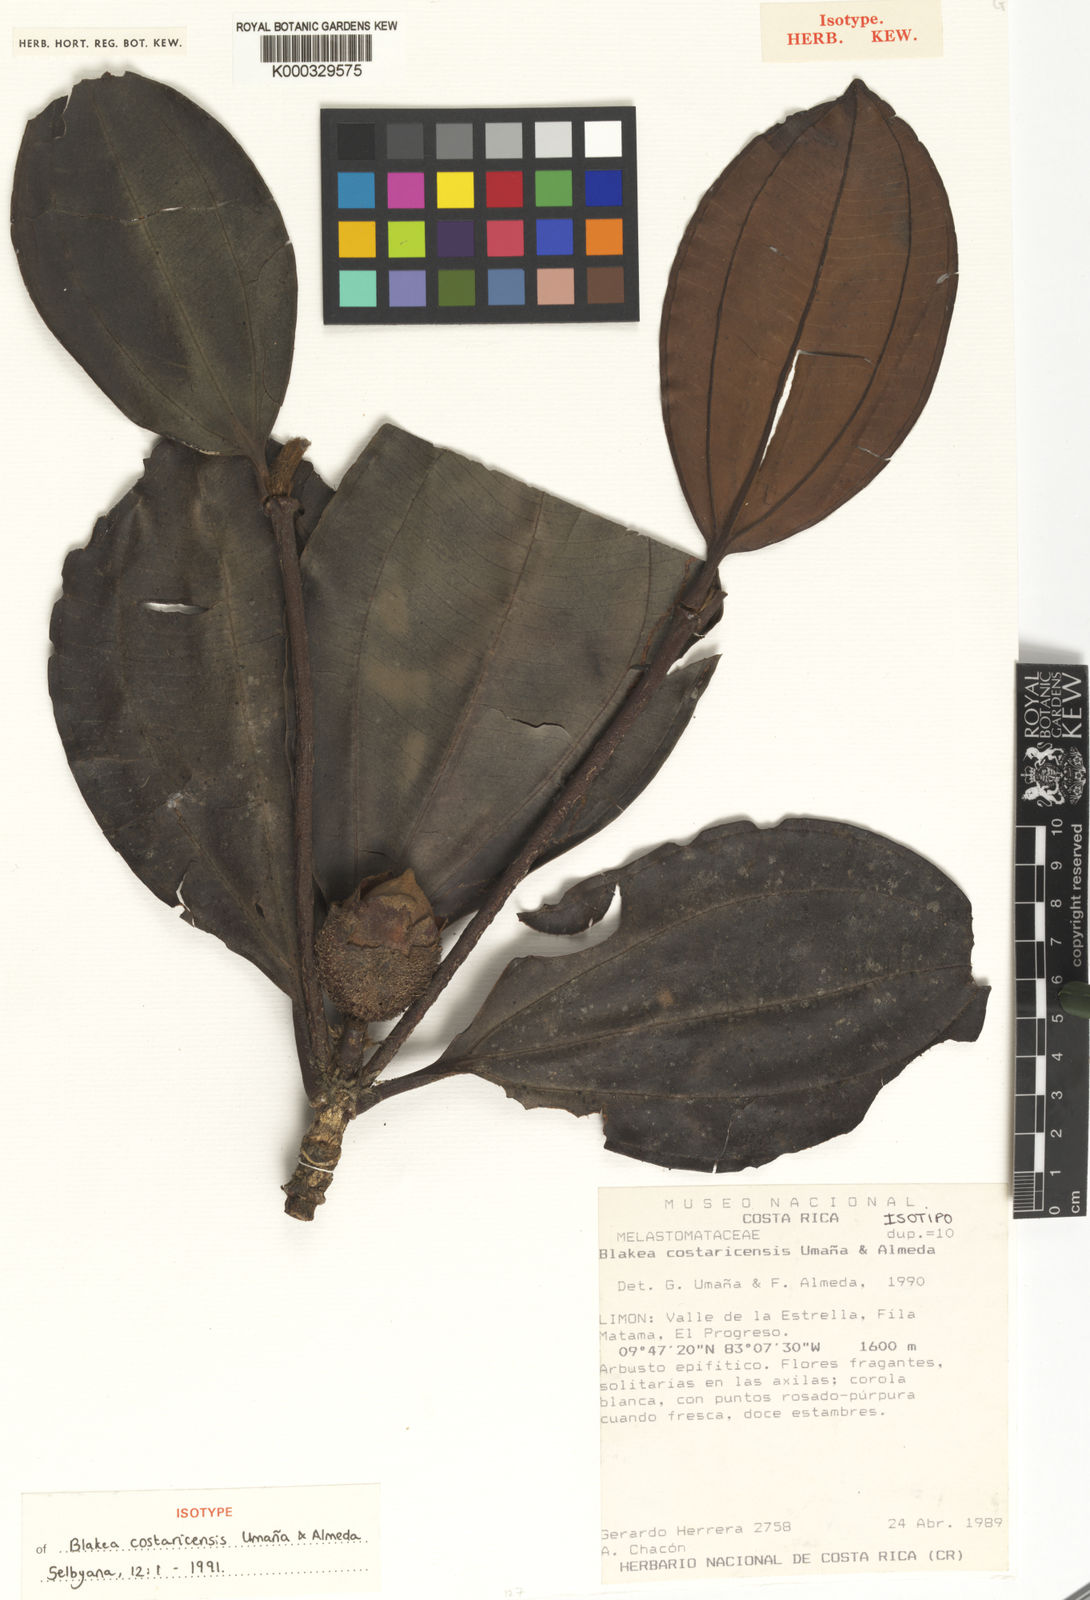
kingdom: Plantae
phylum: Tracheophyta
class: Magnoliopsida
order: Myrtales
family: Melastomataceae
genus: Blakea
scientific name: Blakea
